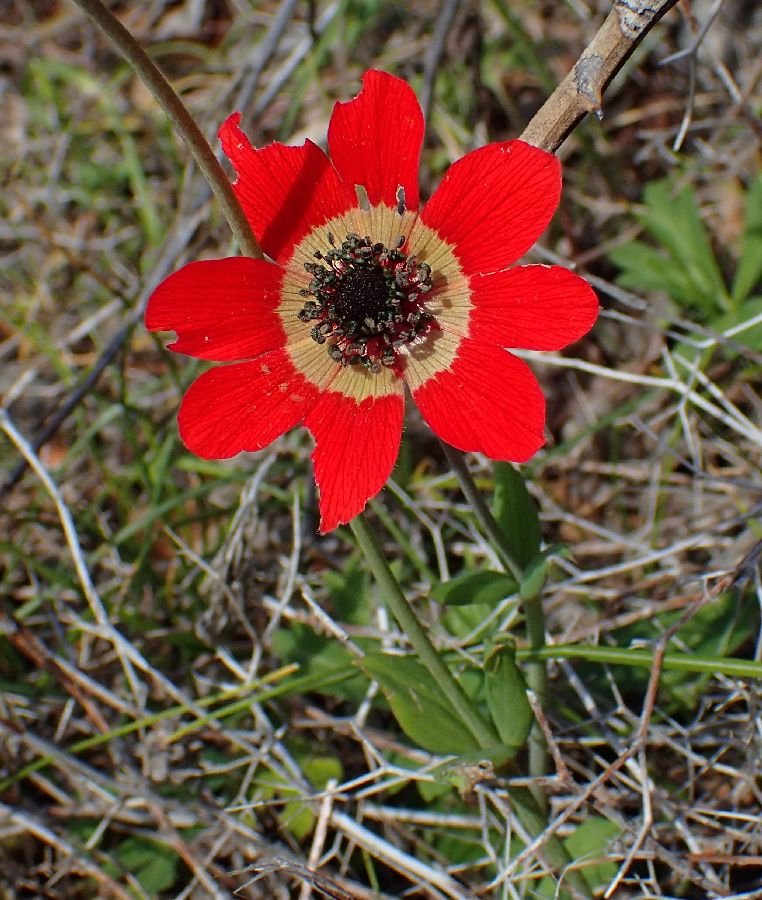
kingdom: Plantae
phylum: Tracheophyta
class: Magnoliopsida
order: Ranunculales
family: Ranunculaceae
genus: Anemone
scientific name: Anemone pavonina
